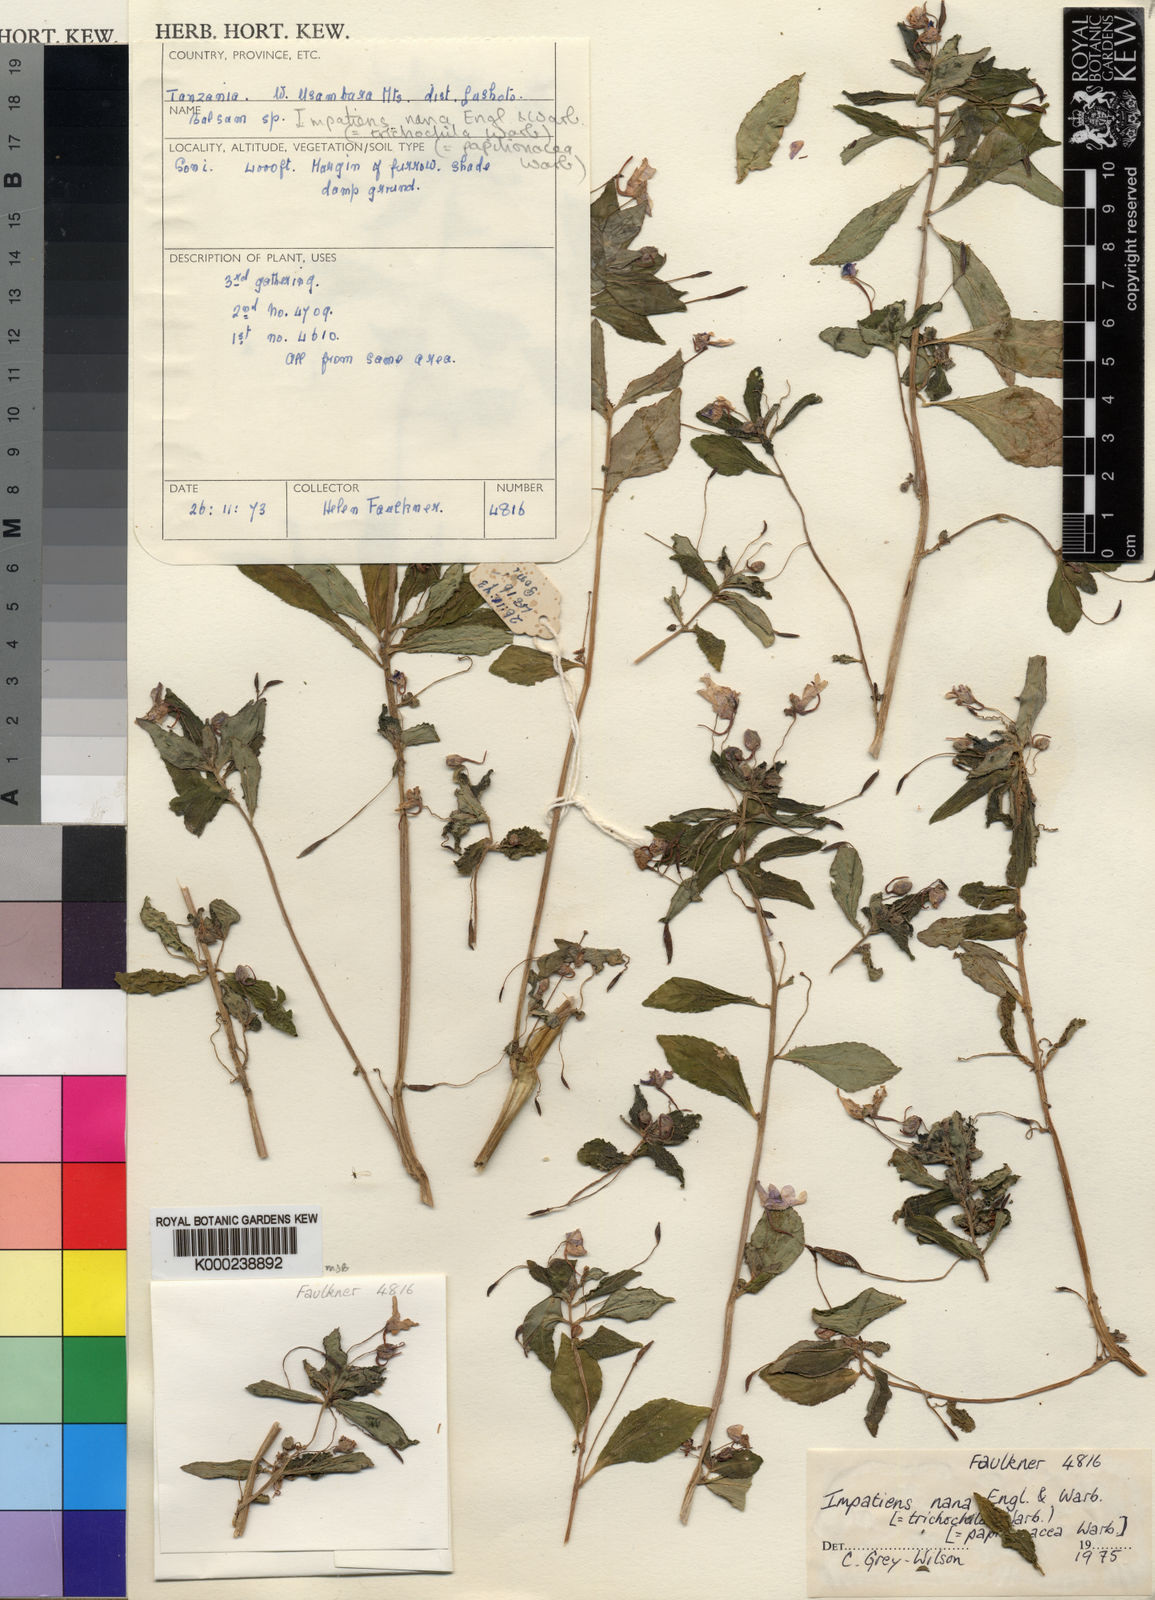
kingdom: Plantae
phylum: Tracheophyta
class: Magnoliopsida
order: Ericales
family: Balsaminaceae
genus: Impatiens
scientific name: Impatiens nana
